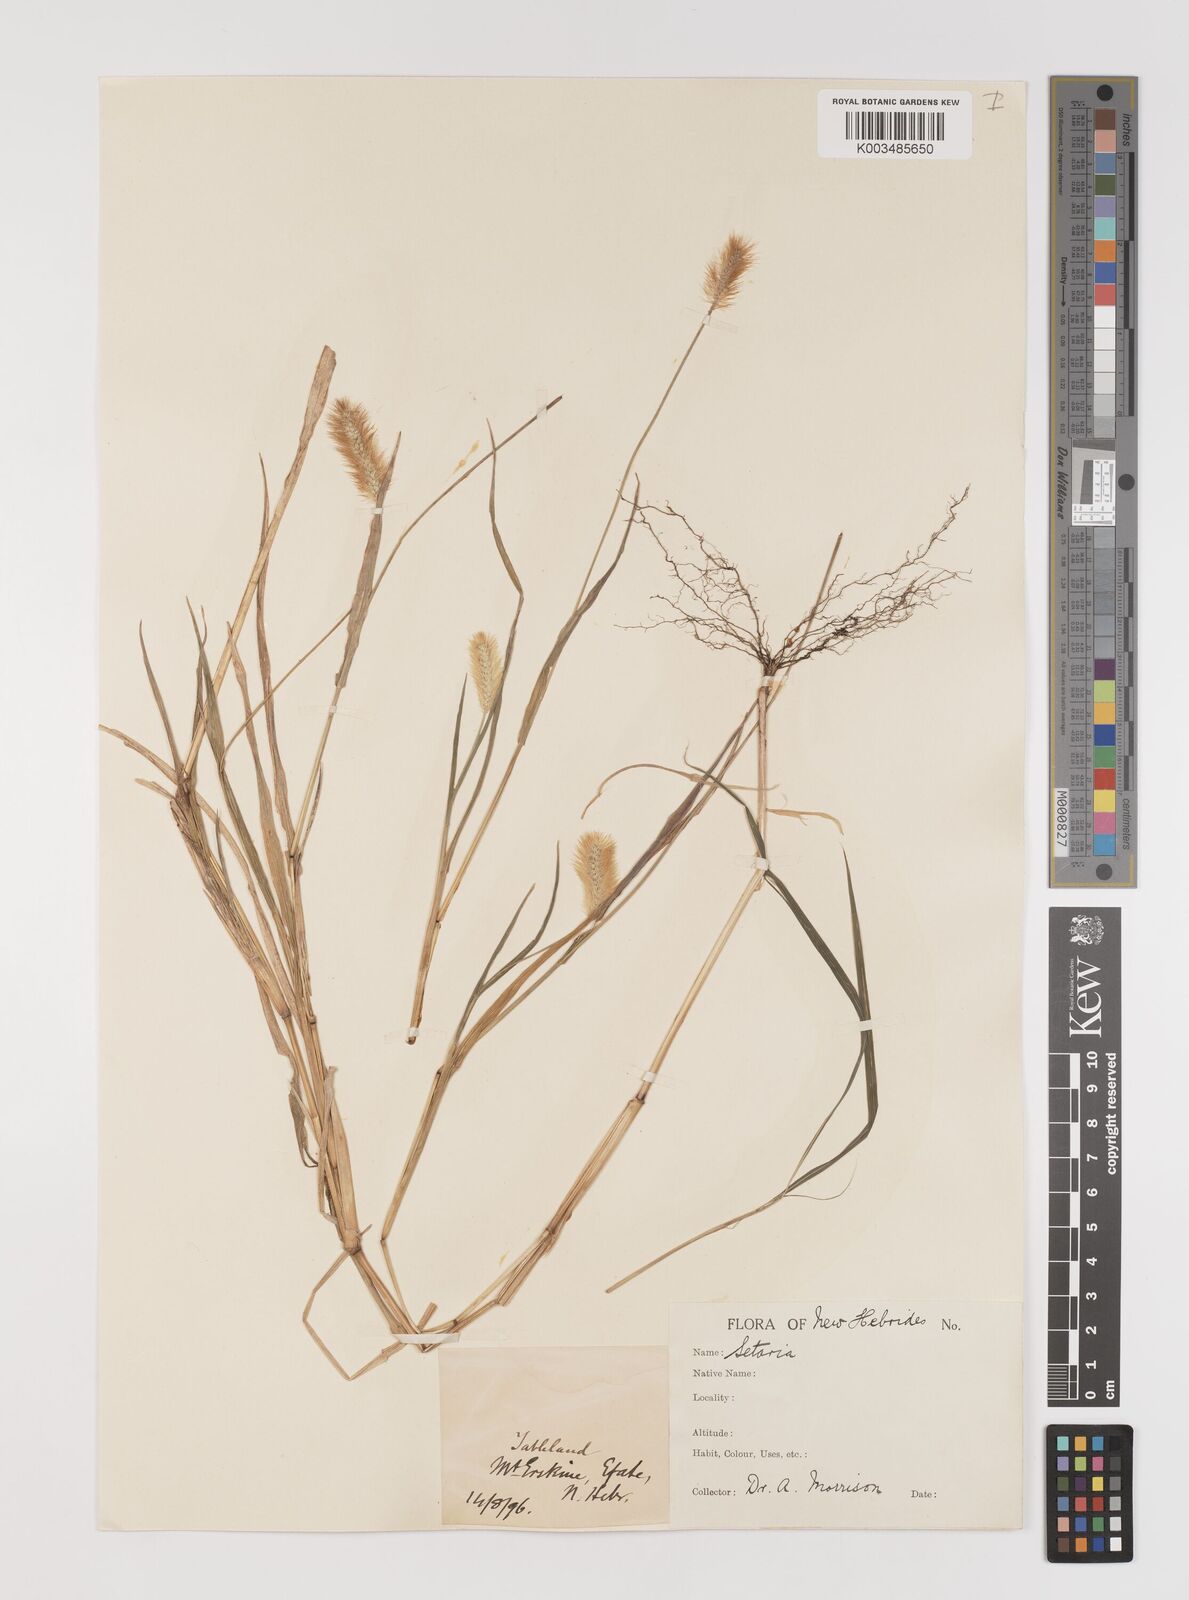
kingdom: Plantae
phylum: Tracheophyta
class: Liliopsida
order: Poales
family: Poaceae
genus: Setaria
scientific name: Setaria pumila
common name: Yellow bristle-grass
